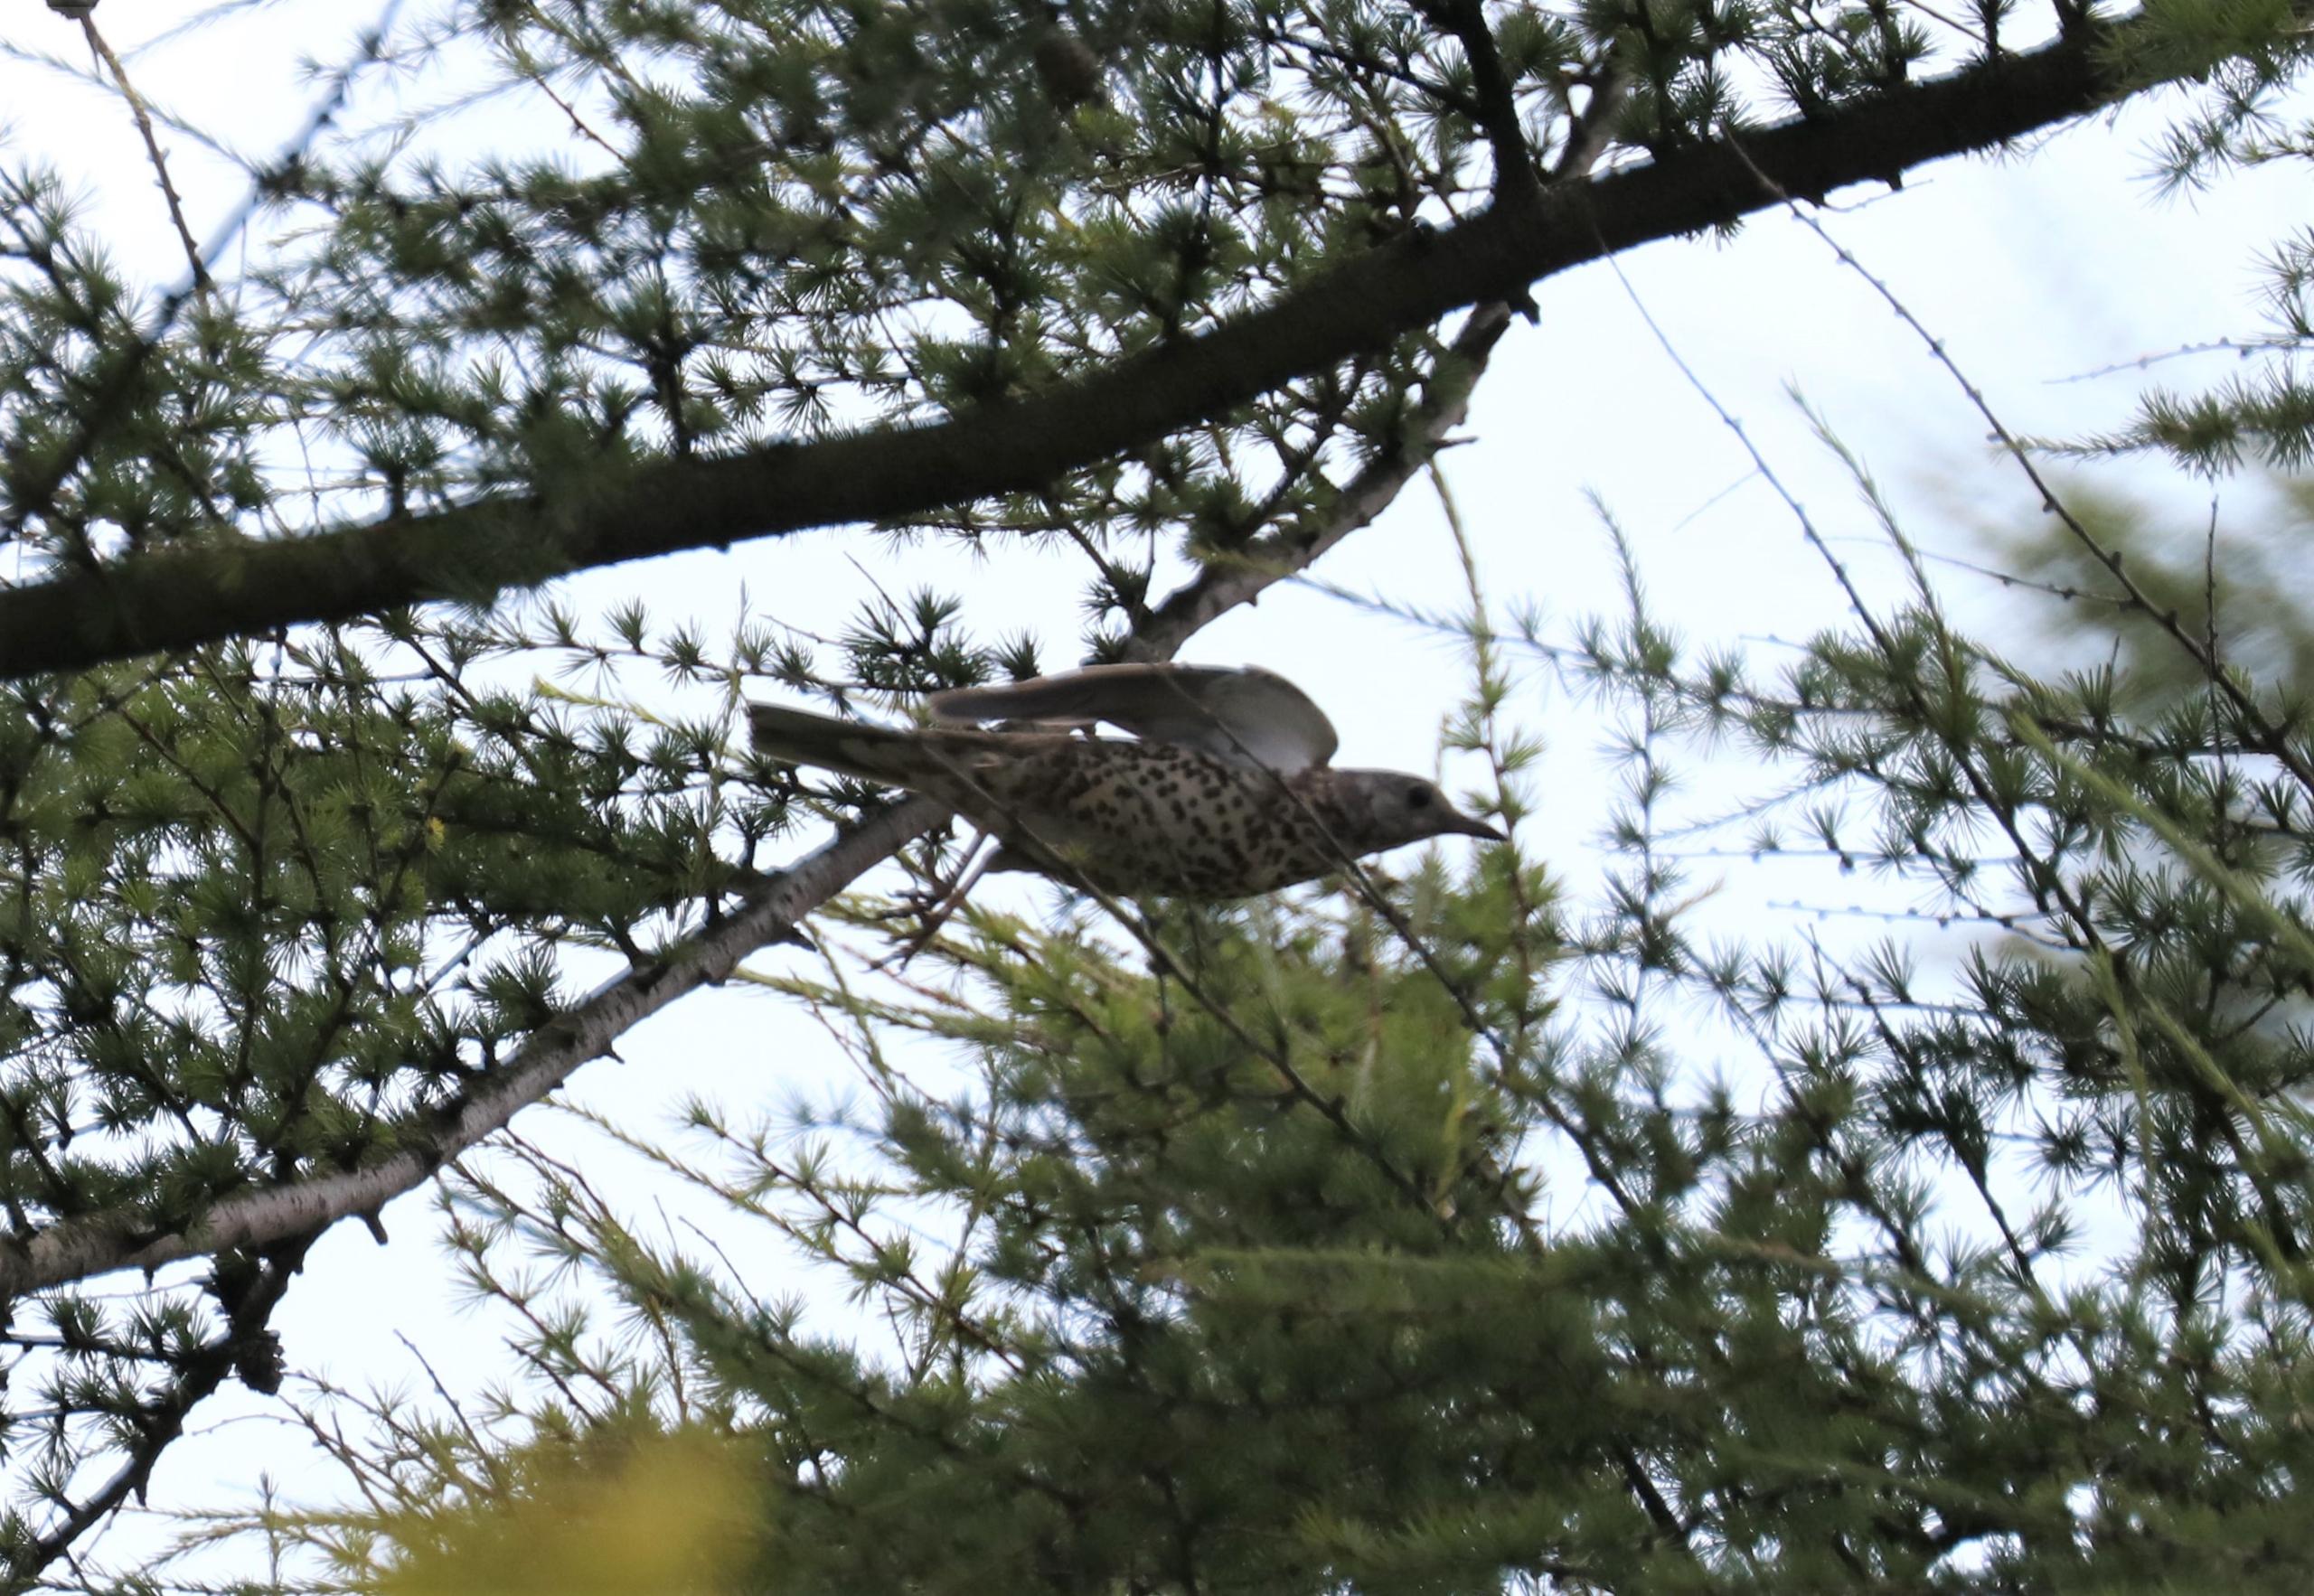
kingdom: Animalia
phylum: Chordata
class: Aves
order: Passeriformes
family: Turdidae
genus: Turdus
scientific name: Turdus viscivorus
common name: Misteldrossel
